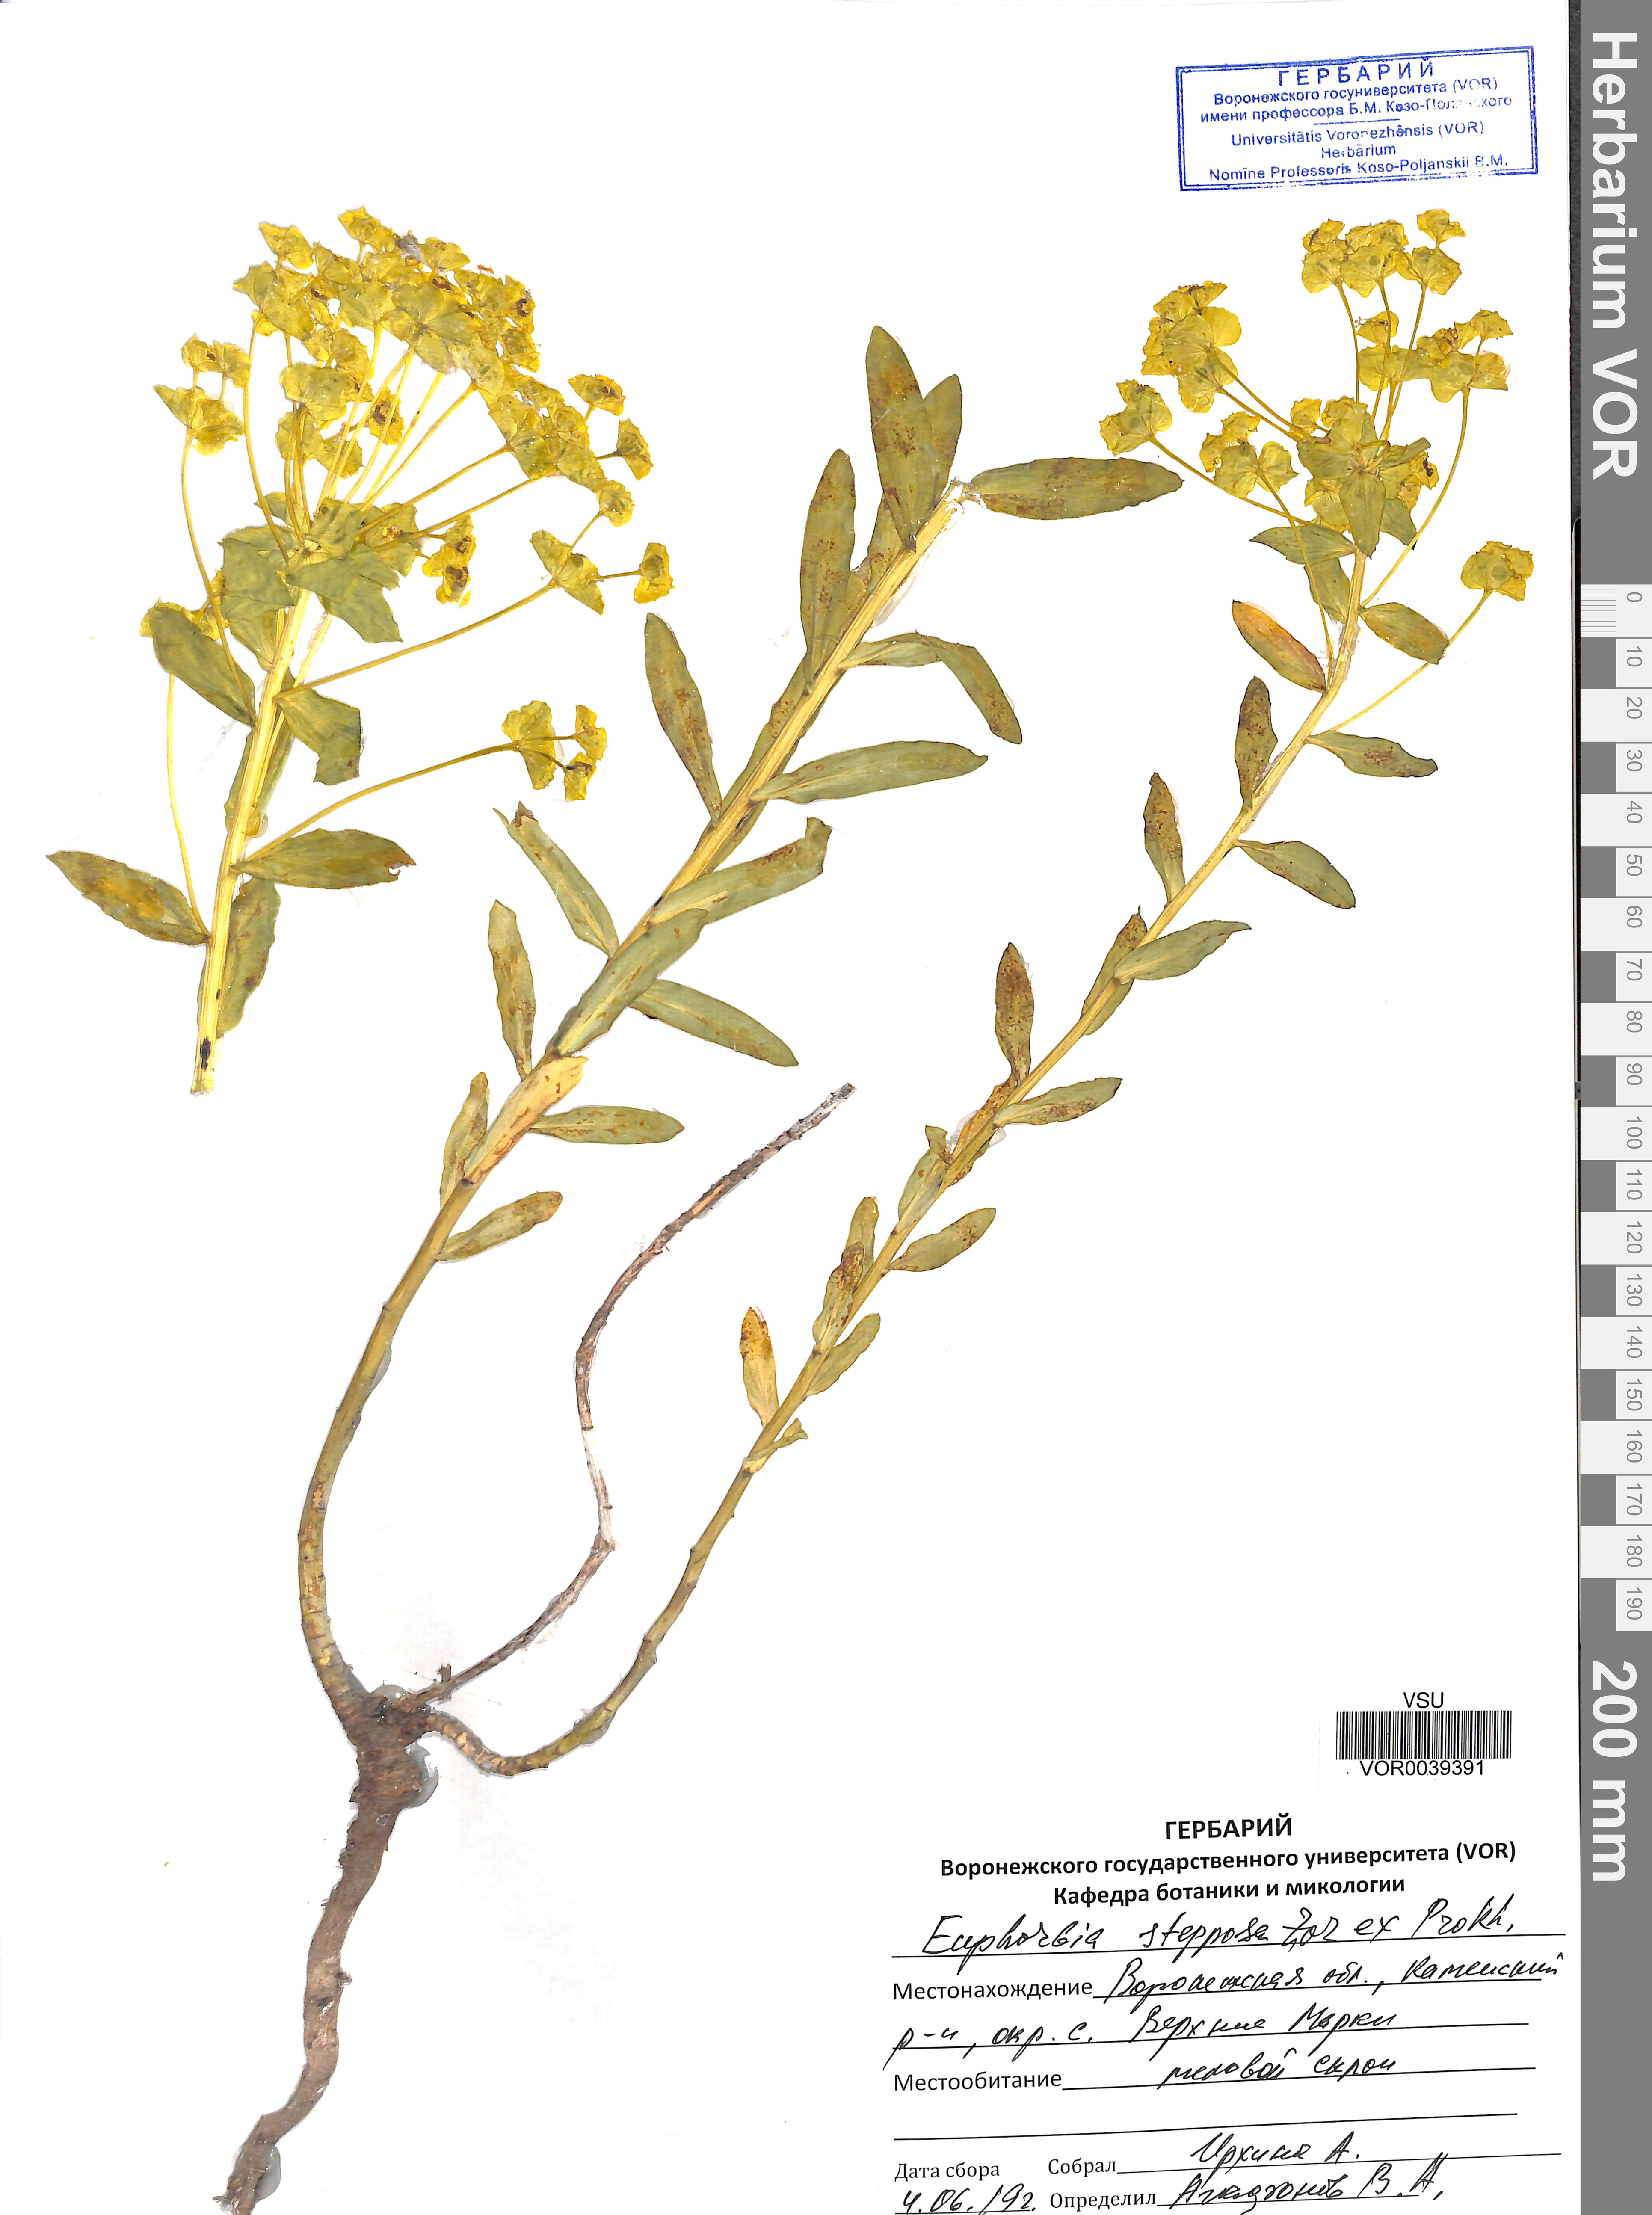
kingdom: Plantae
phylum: Tracheophyta
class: Magnoliopsida
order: Malpighiales
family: Euphorbiaceae
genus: Euphorbia
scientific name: Euphorbia stepposa
